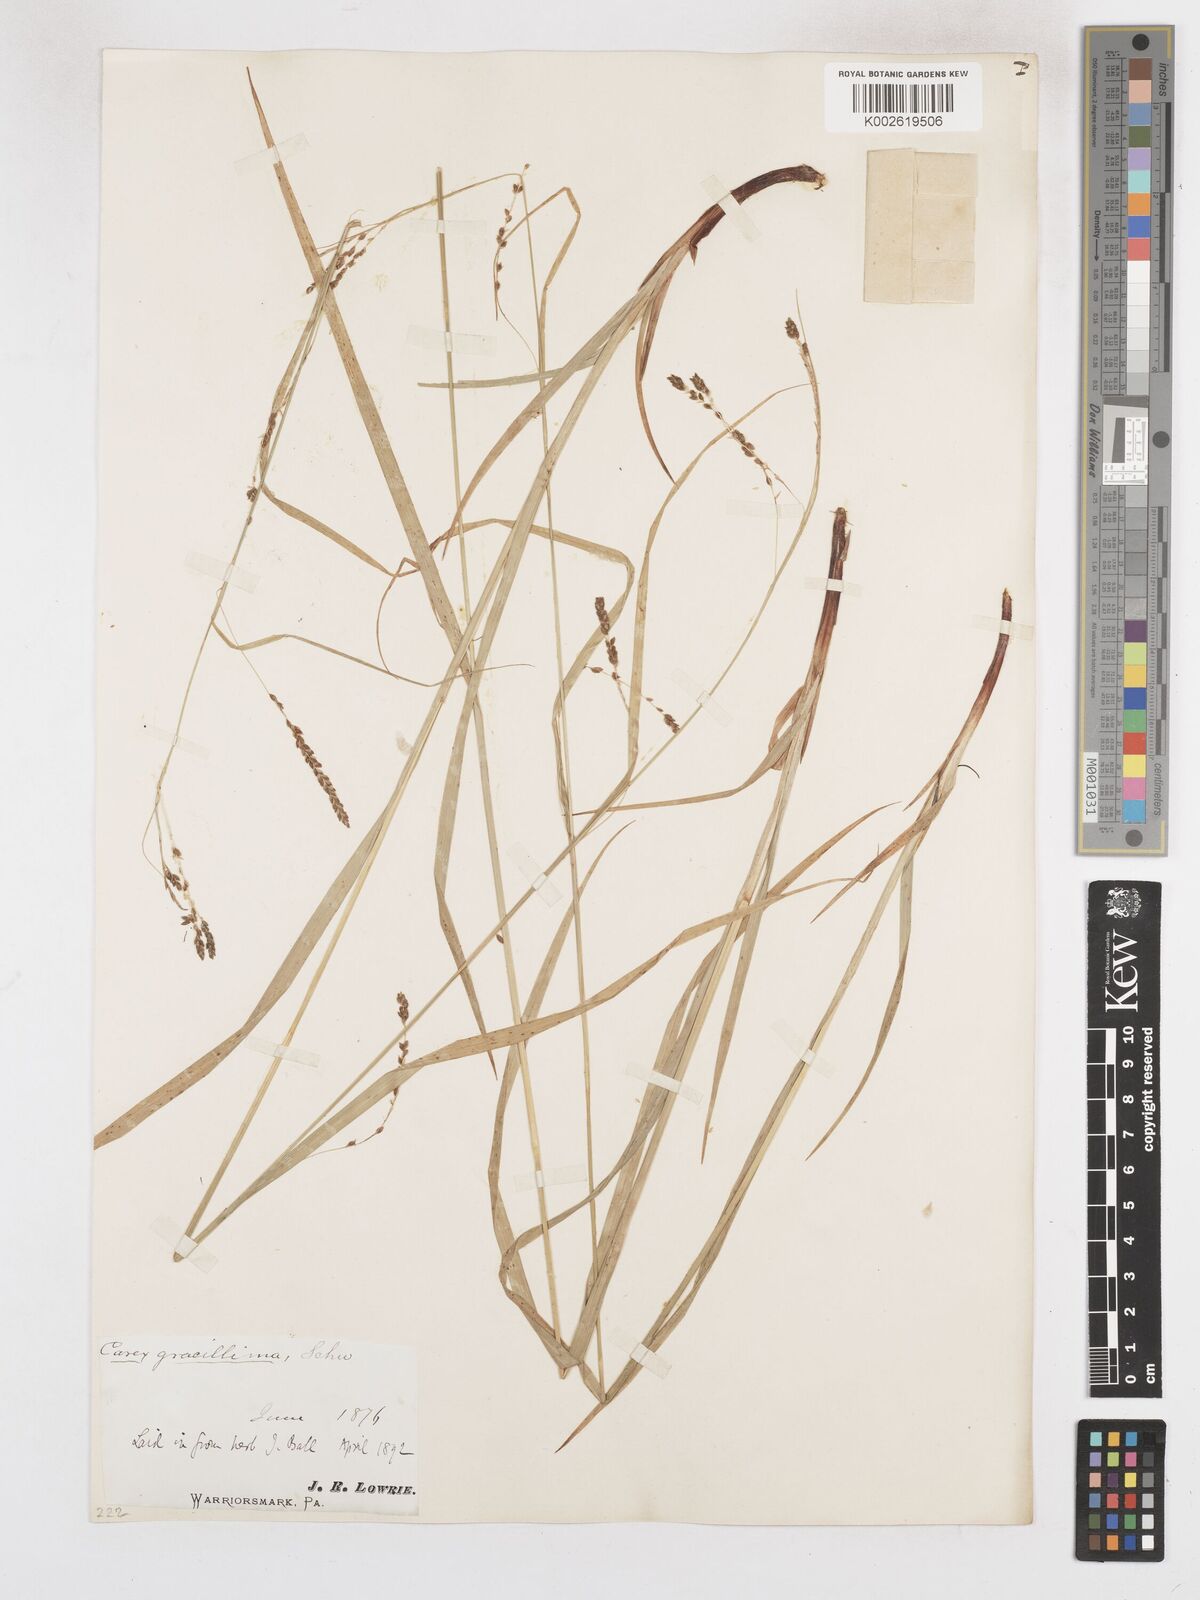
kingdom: Plantae
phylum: Tracheophyta
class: Liliopsida
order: Poales
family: Cyperaceae
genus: Carex
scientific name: Carex gracillima
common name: Graceful sedge
